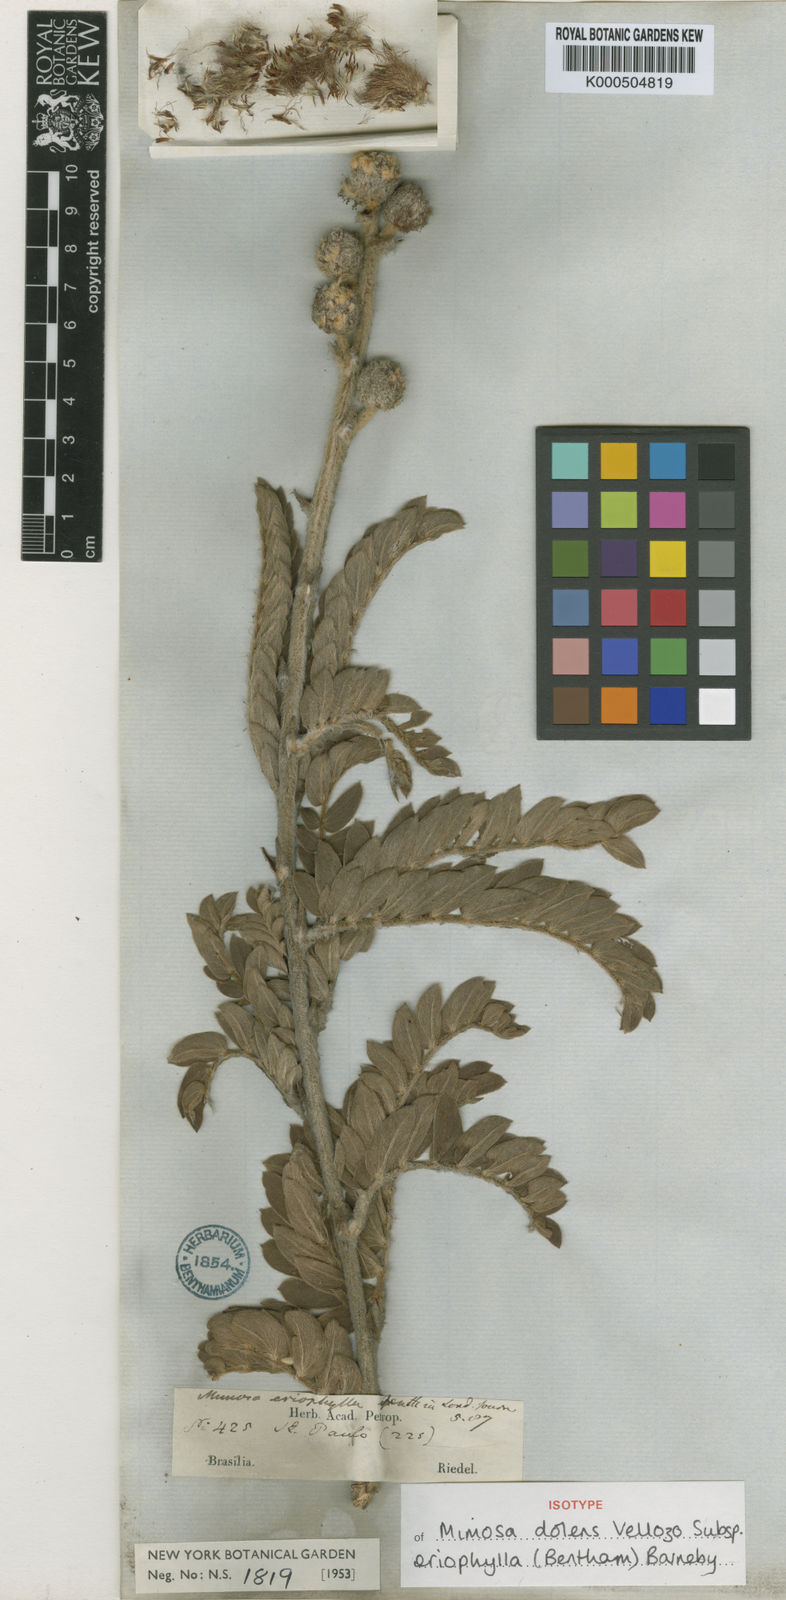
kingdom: Plantae
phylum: Tracheophyta
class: Magnoliopsida
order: Fabales
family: Fabaceae
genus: Mimosa
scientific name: Mimosa dolens
